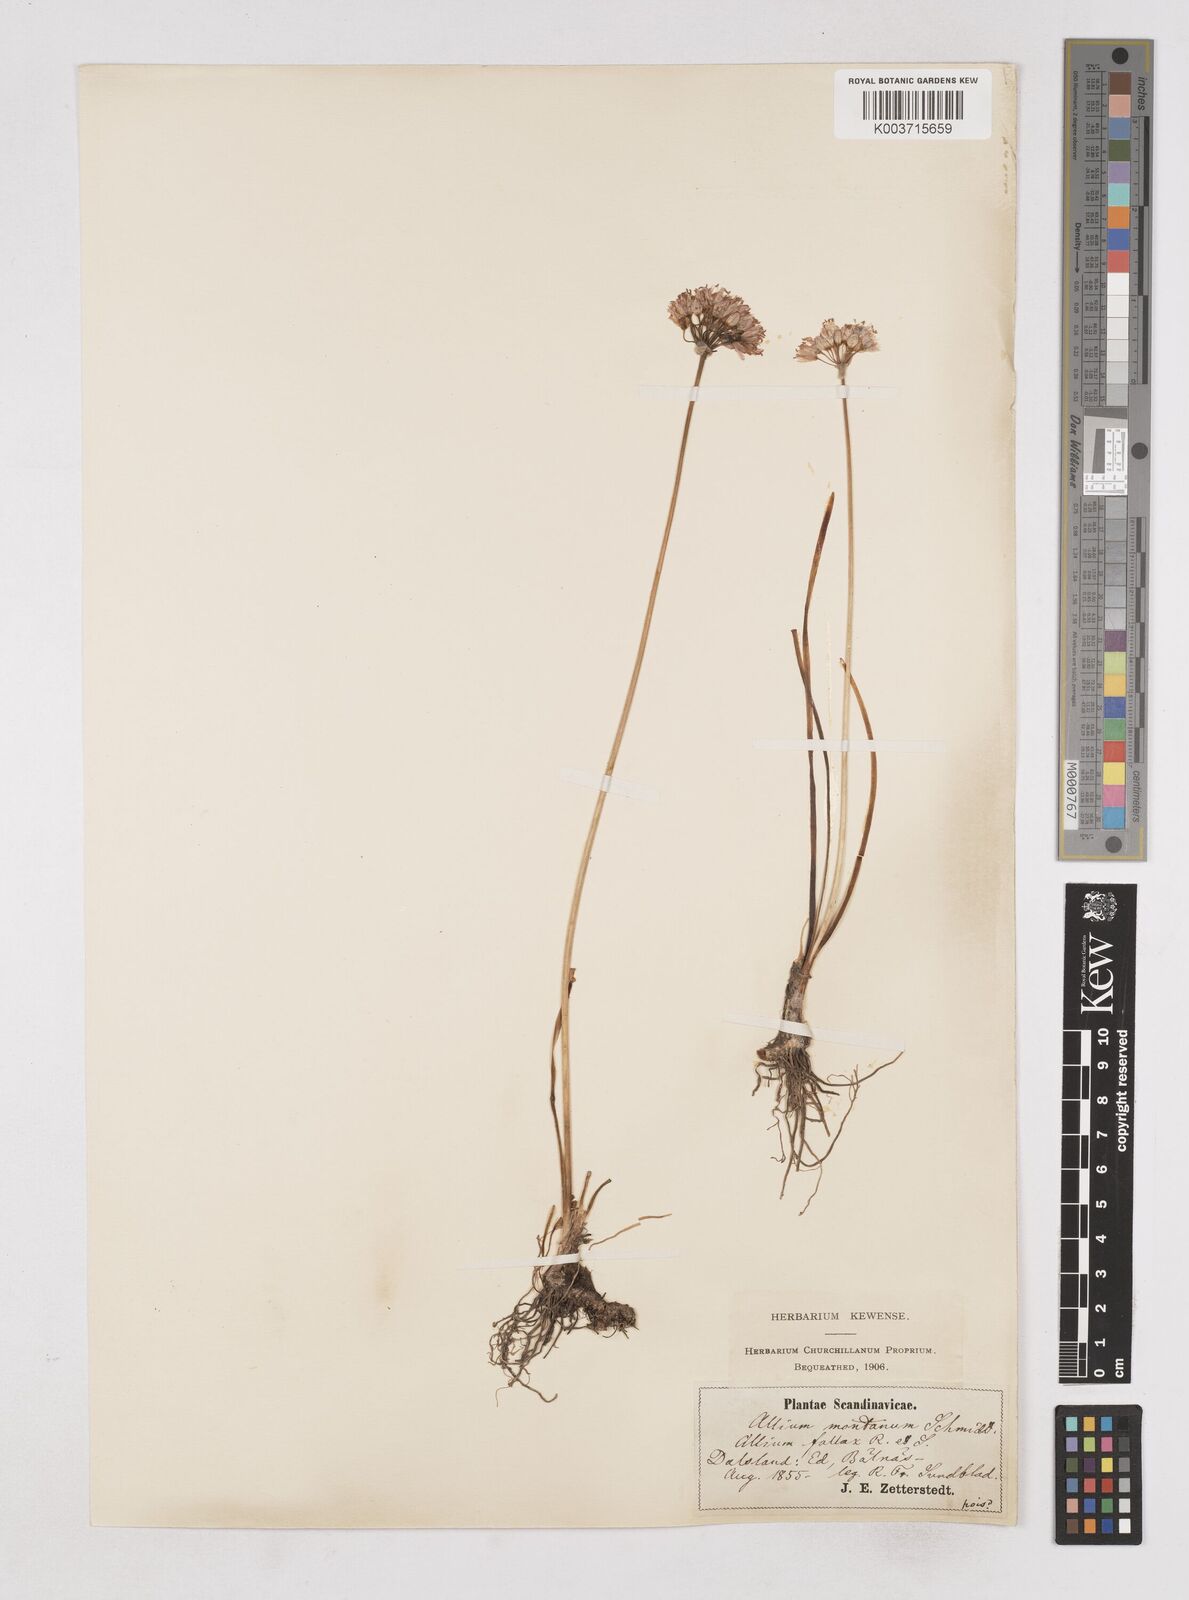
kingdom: Plantae
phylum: Tracheophyta
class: Liliopsida
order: Asparagales
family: Amaryllidaceae
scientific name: Amaryllidaceae
